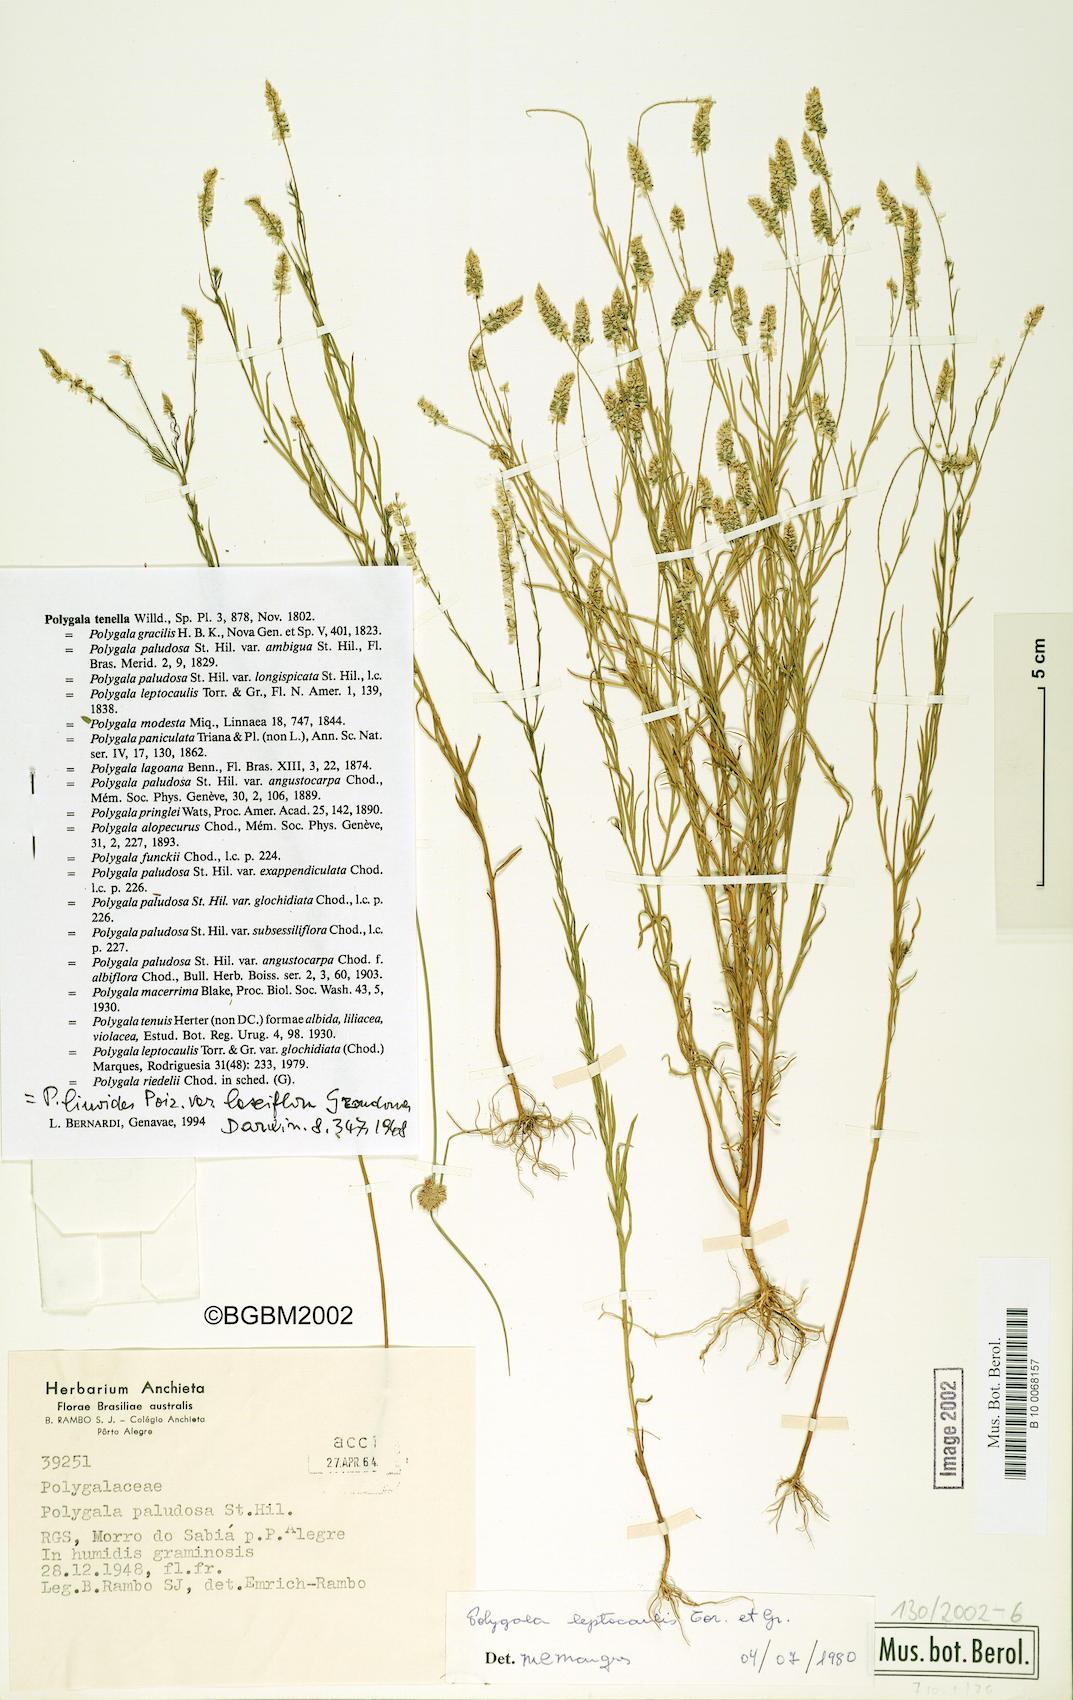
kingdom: Plantae
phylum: Tracheophyta
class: Magnoliopsida
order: Fabales
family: Polygalaceae
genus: Polygala
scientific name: Polygala tenella
